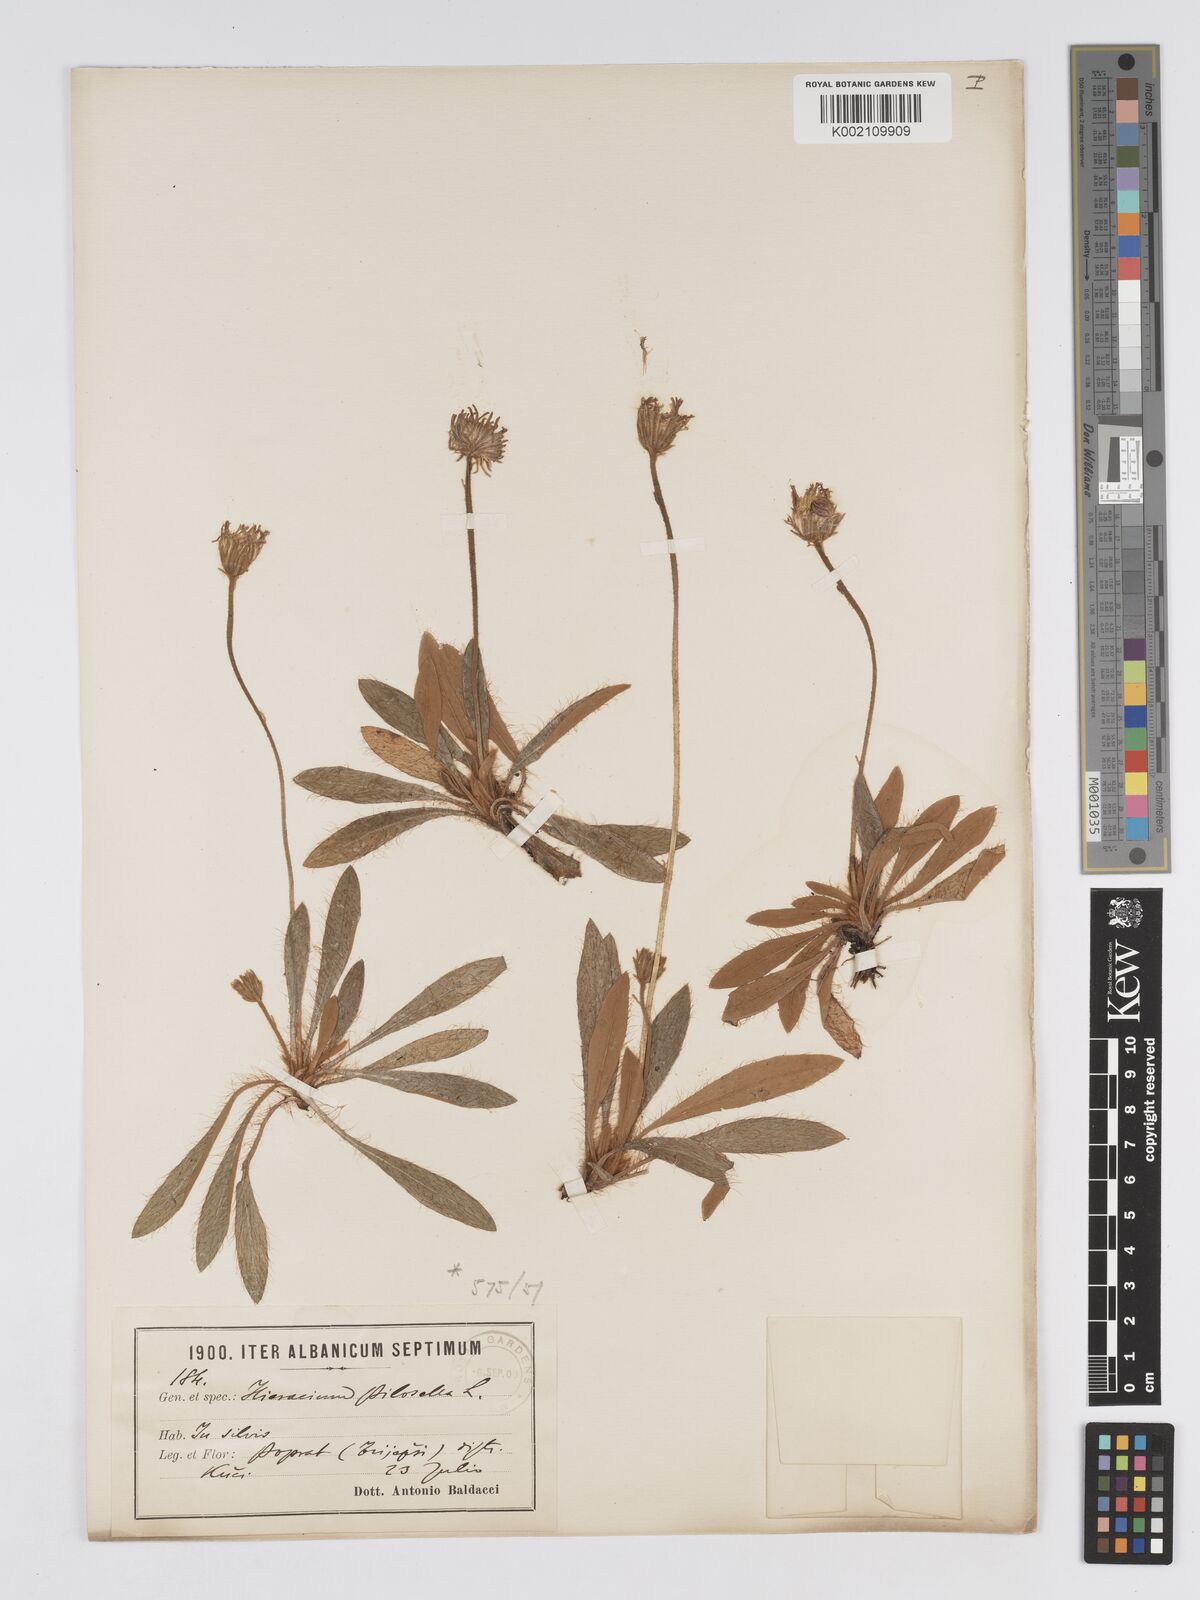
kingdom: Plantae
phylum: Tracheophyta
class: Magnoliopsida
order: Asterales
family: Asteraceae
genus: Pilosella
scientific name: Pilosella hoppeana
